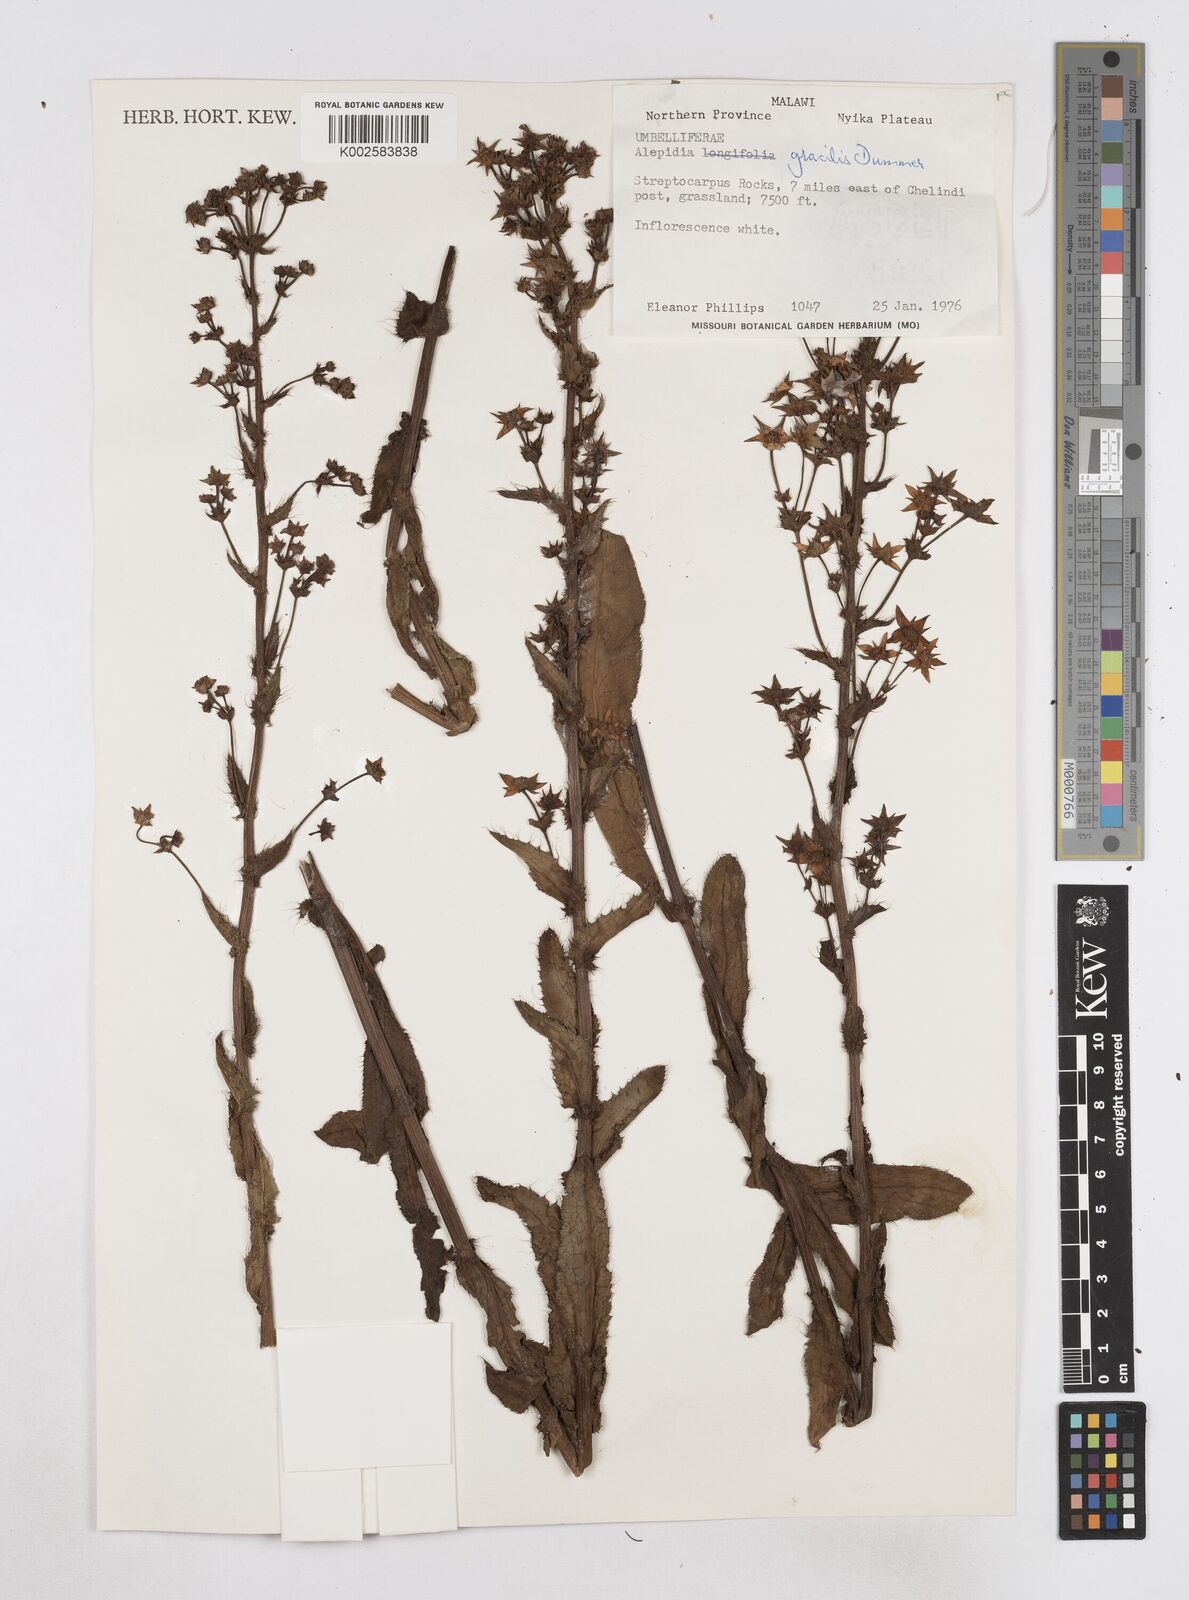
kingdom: Plantae
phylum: Tracheophyta
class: Magnoliopsida
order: Apiales
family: Apiaceae
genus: Alepidea
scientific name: Alepidea peduncularis
